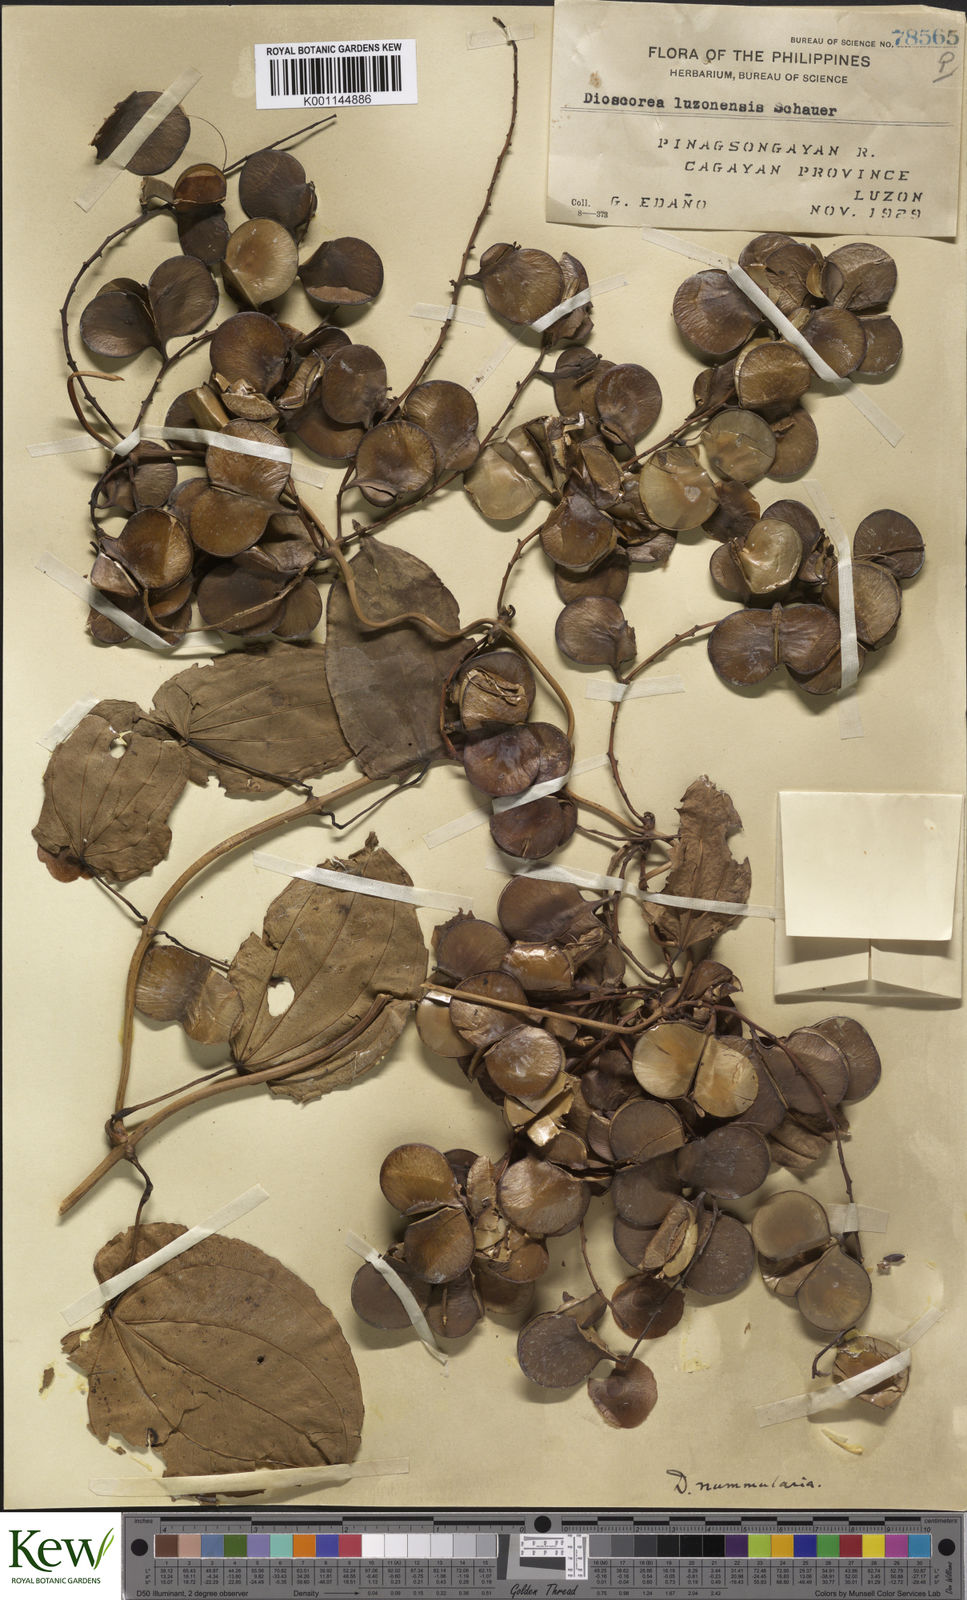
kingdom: Plantae
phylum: Tracheophyta
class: Liliopsida
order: Dioscoreales
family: Dioscoreaceae
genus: Dioscorea
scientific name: Dioscorea nummularia
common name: Pacific yam
